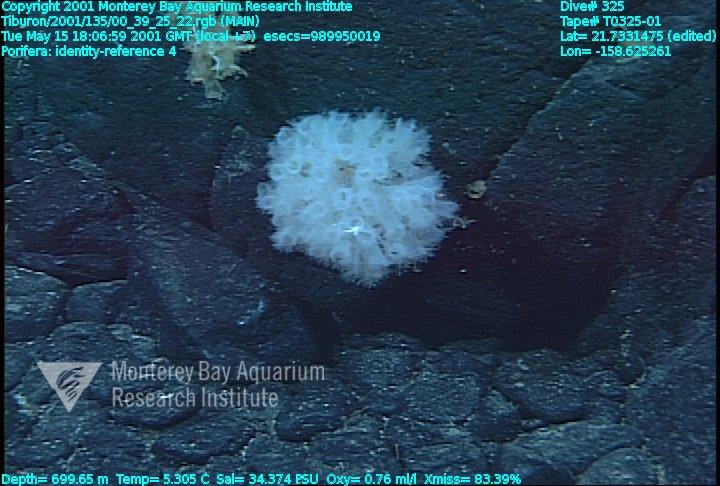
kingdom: Animalia
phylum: Porifera
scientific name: Porifera
